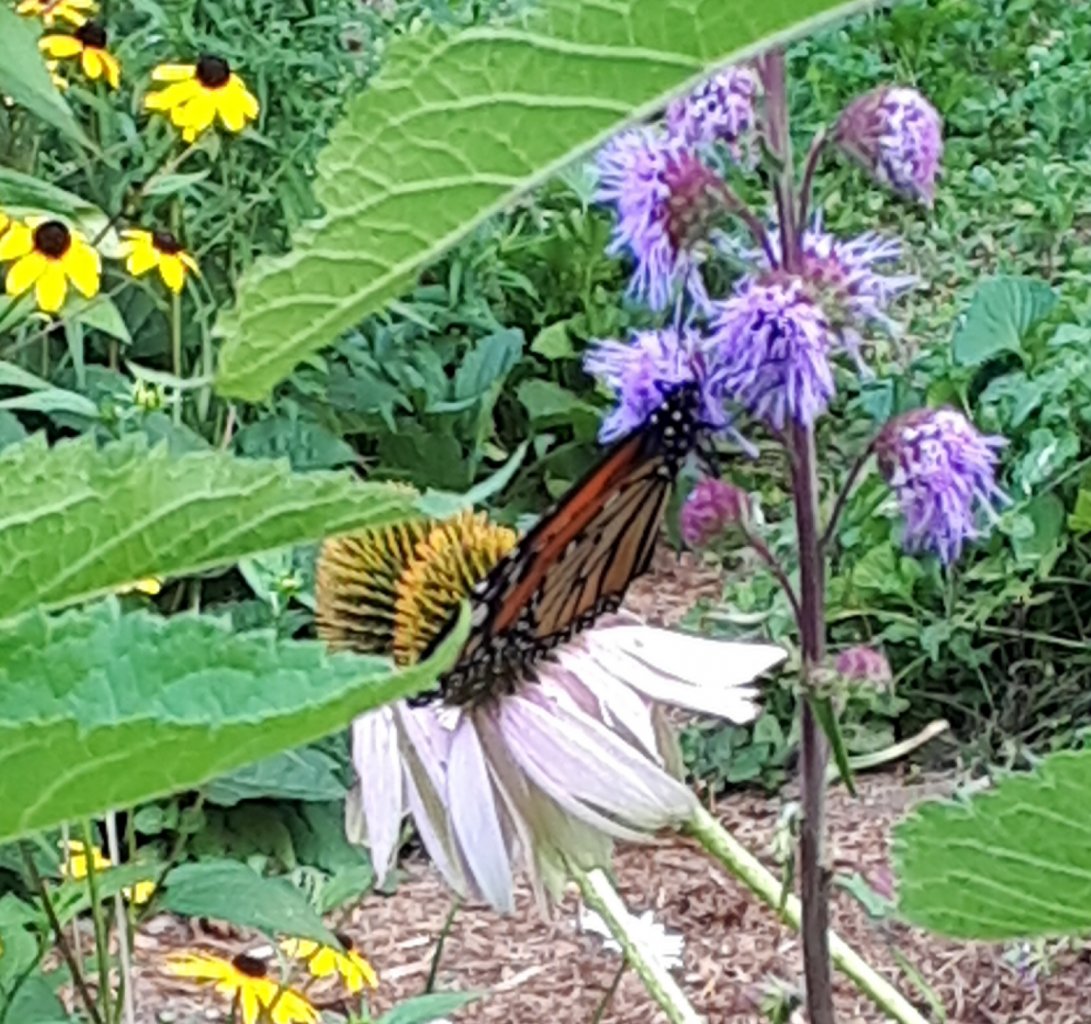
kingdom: Animalia
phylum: Arthropoda
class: Insecta
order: Lepidoptera
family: Nymphalidae
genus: Danaus
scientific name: Danaus plexippus
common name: Monarch
